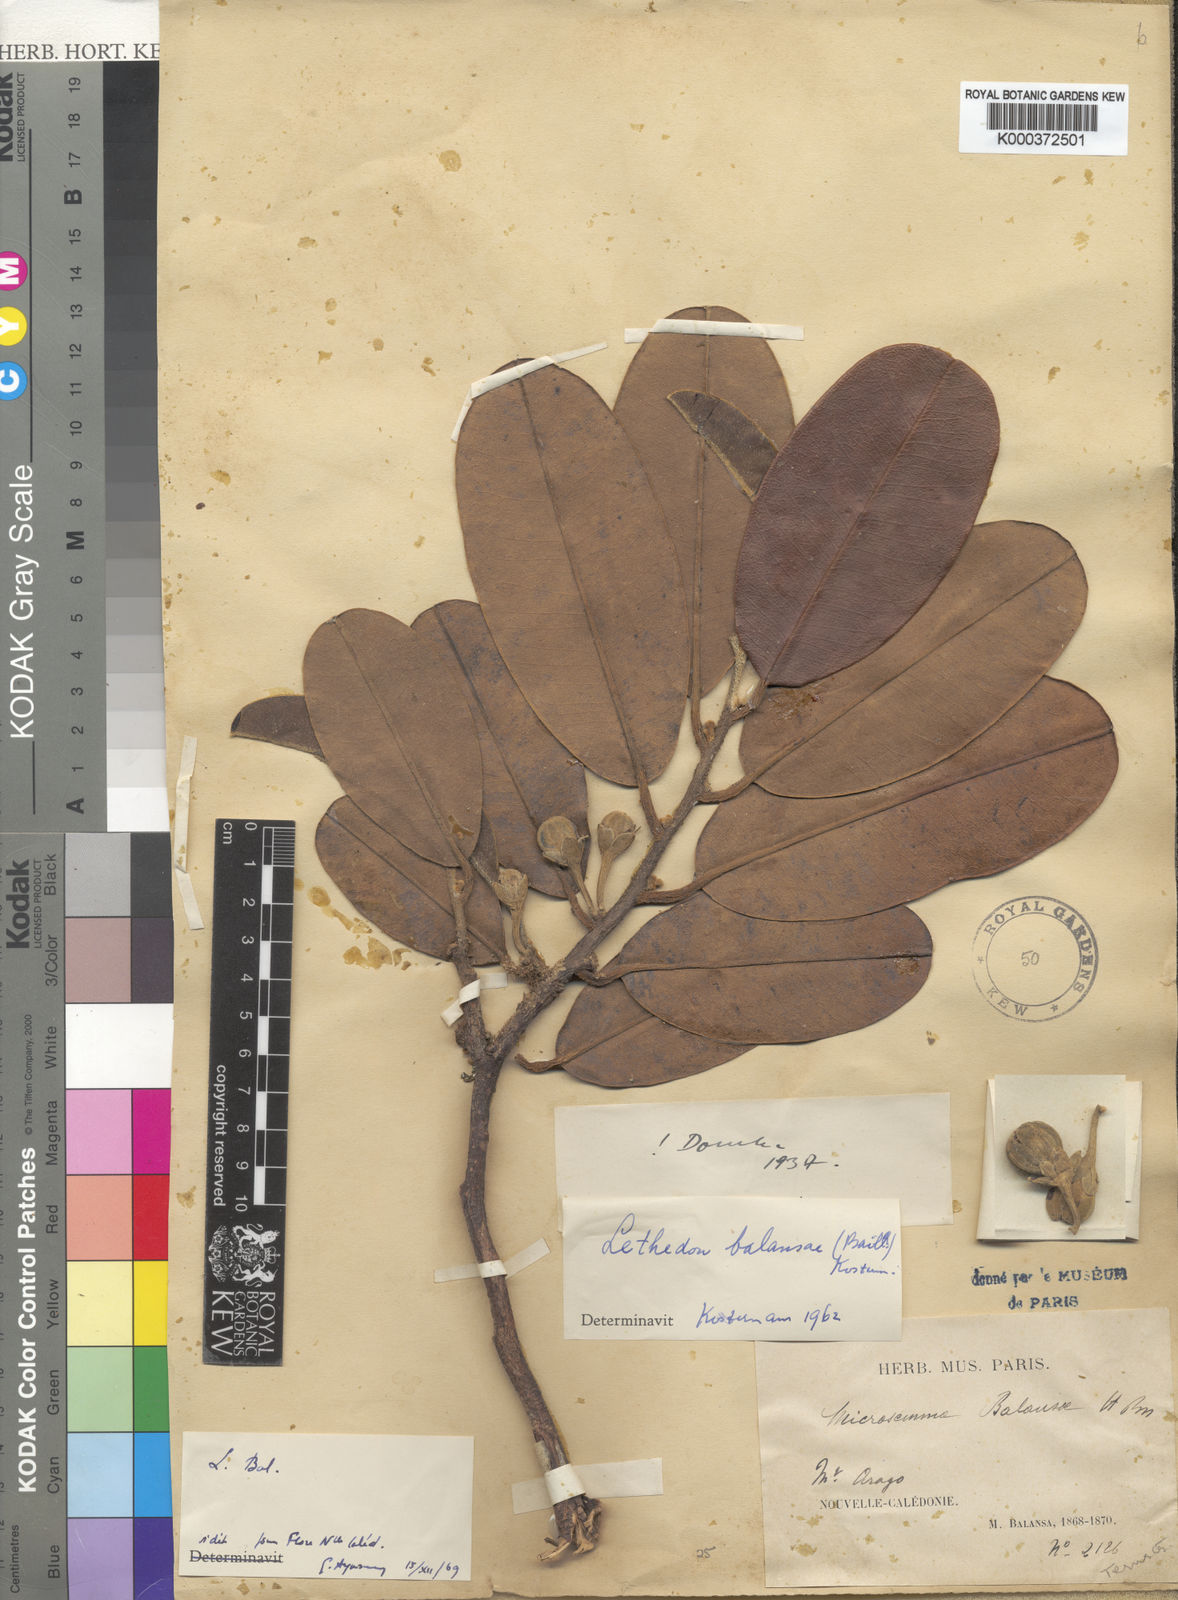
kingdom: Plantae
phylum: Tracheophyta
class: Magnoliopsida
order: Malvales
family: Thymelaeaceae
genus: Lethedon
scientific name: Lethedon balansae
